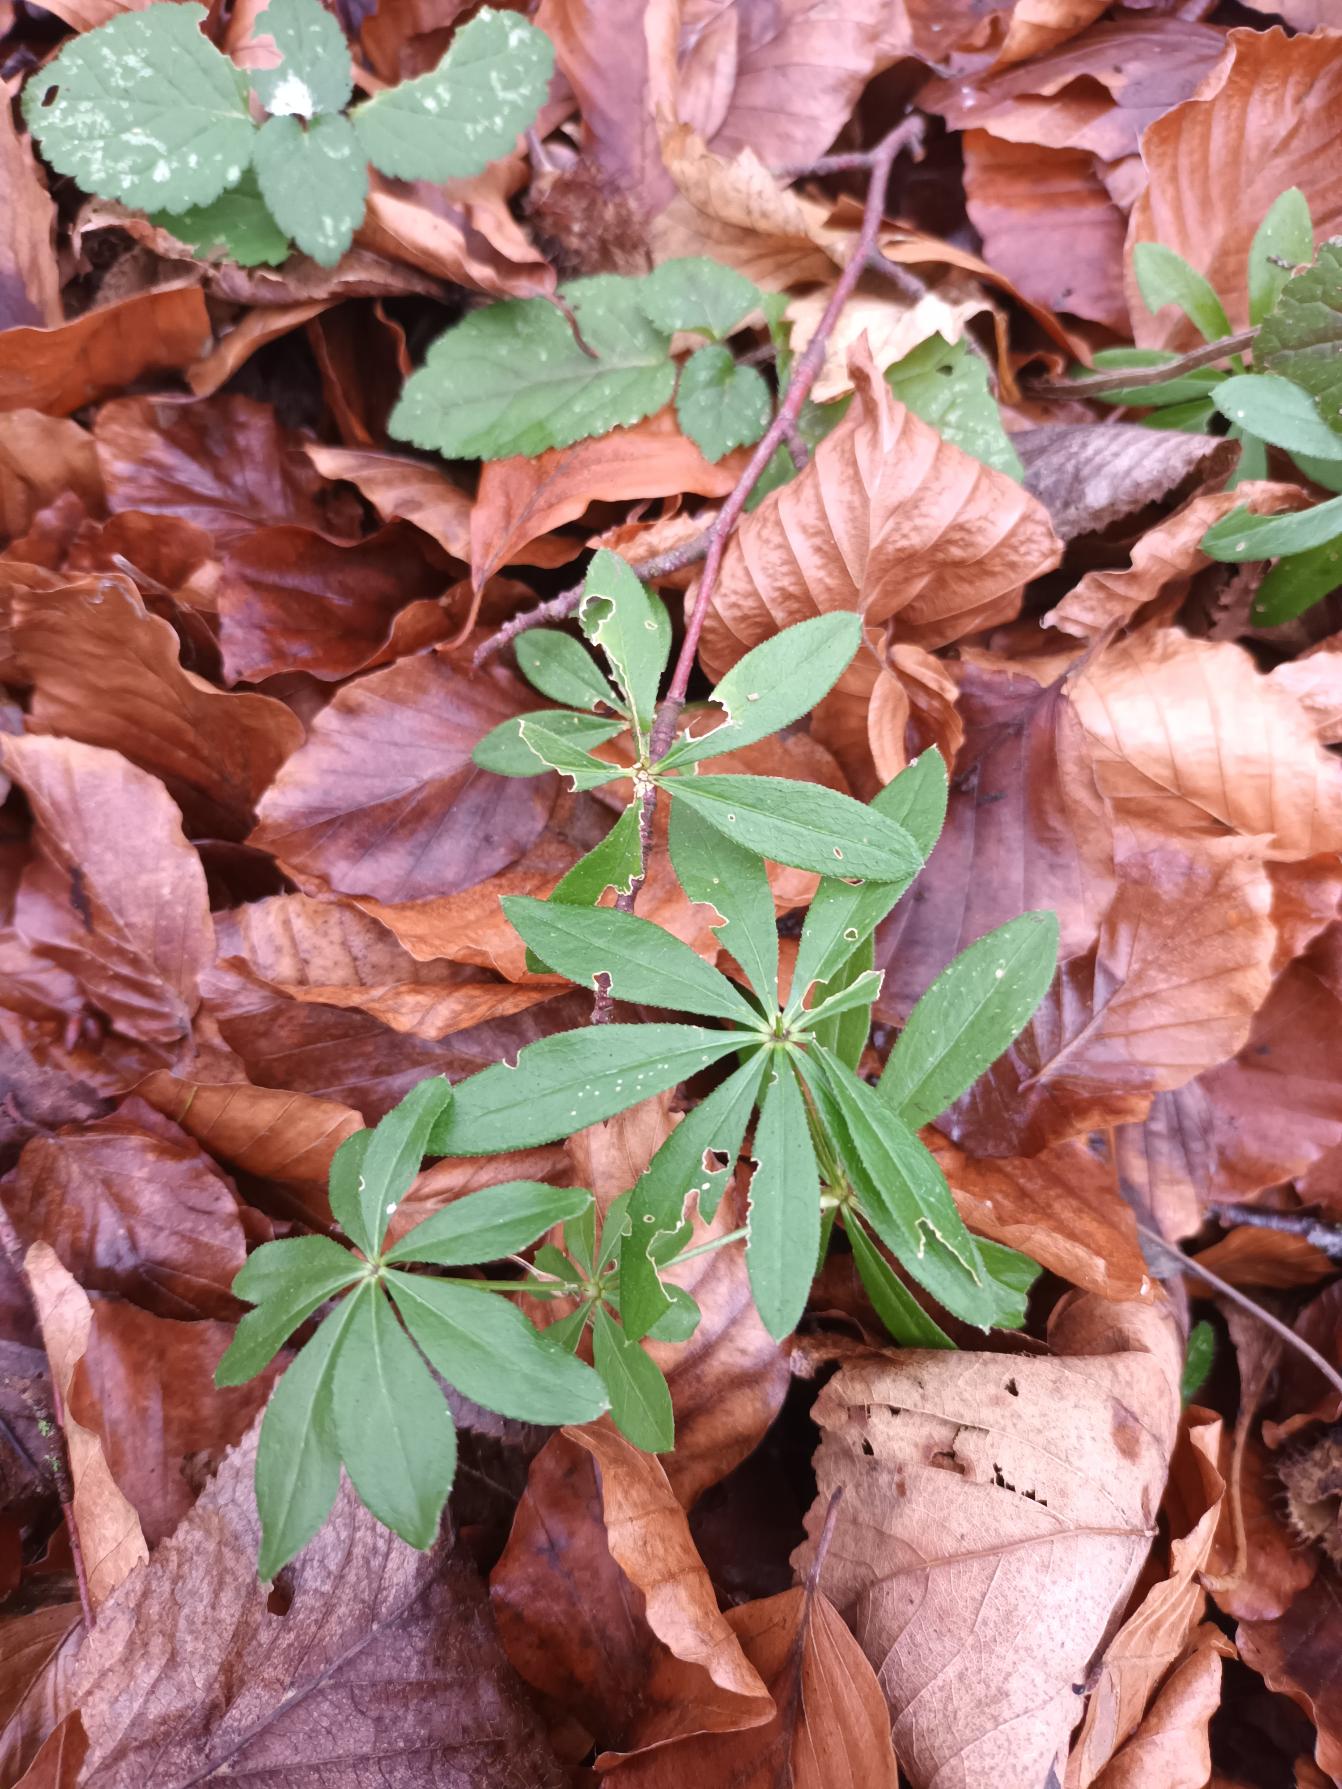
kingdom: Plantae
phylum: Tracheophyta
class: Magnoliopsida
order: Gentianales
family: Rubiaceae
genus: Galium
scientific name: Galium odoratum
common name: Skovmærke
